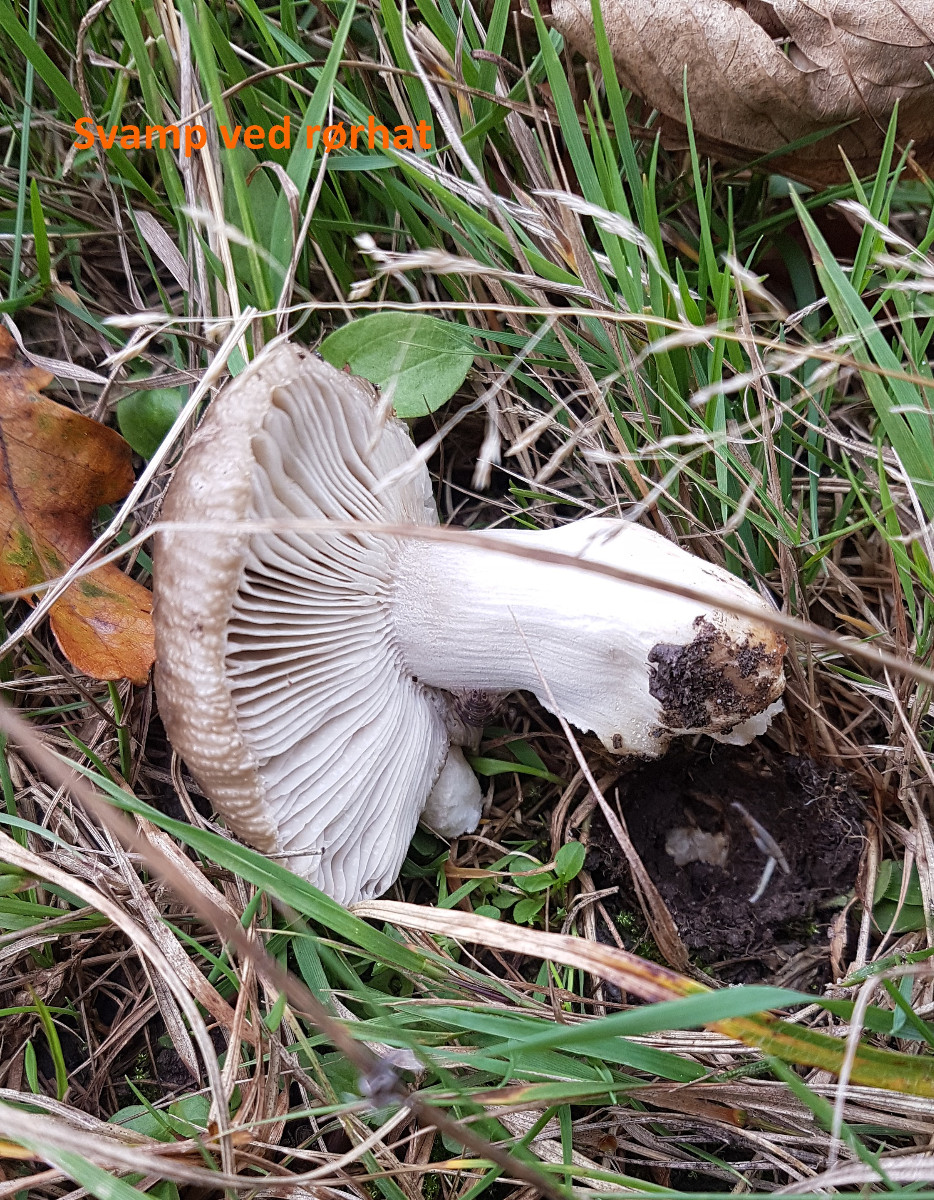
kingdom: Fungi
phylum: Basidiomycota
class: Agaricomycetes
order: Boletales
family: Boletaceae
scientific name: Boletaceae
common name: rørhatfamilien
